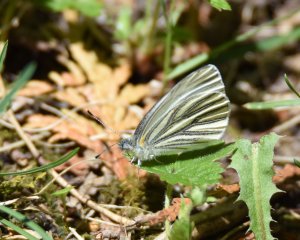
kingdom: Animalia
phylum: Arthropoda
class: Insecta
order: Lepidoptera
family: Pieridae
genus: Pieris
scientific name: Pieris oleracea
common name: Mustard White
